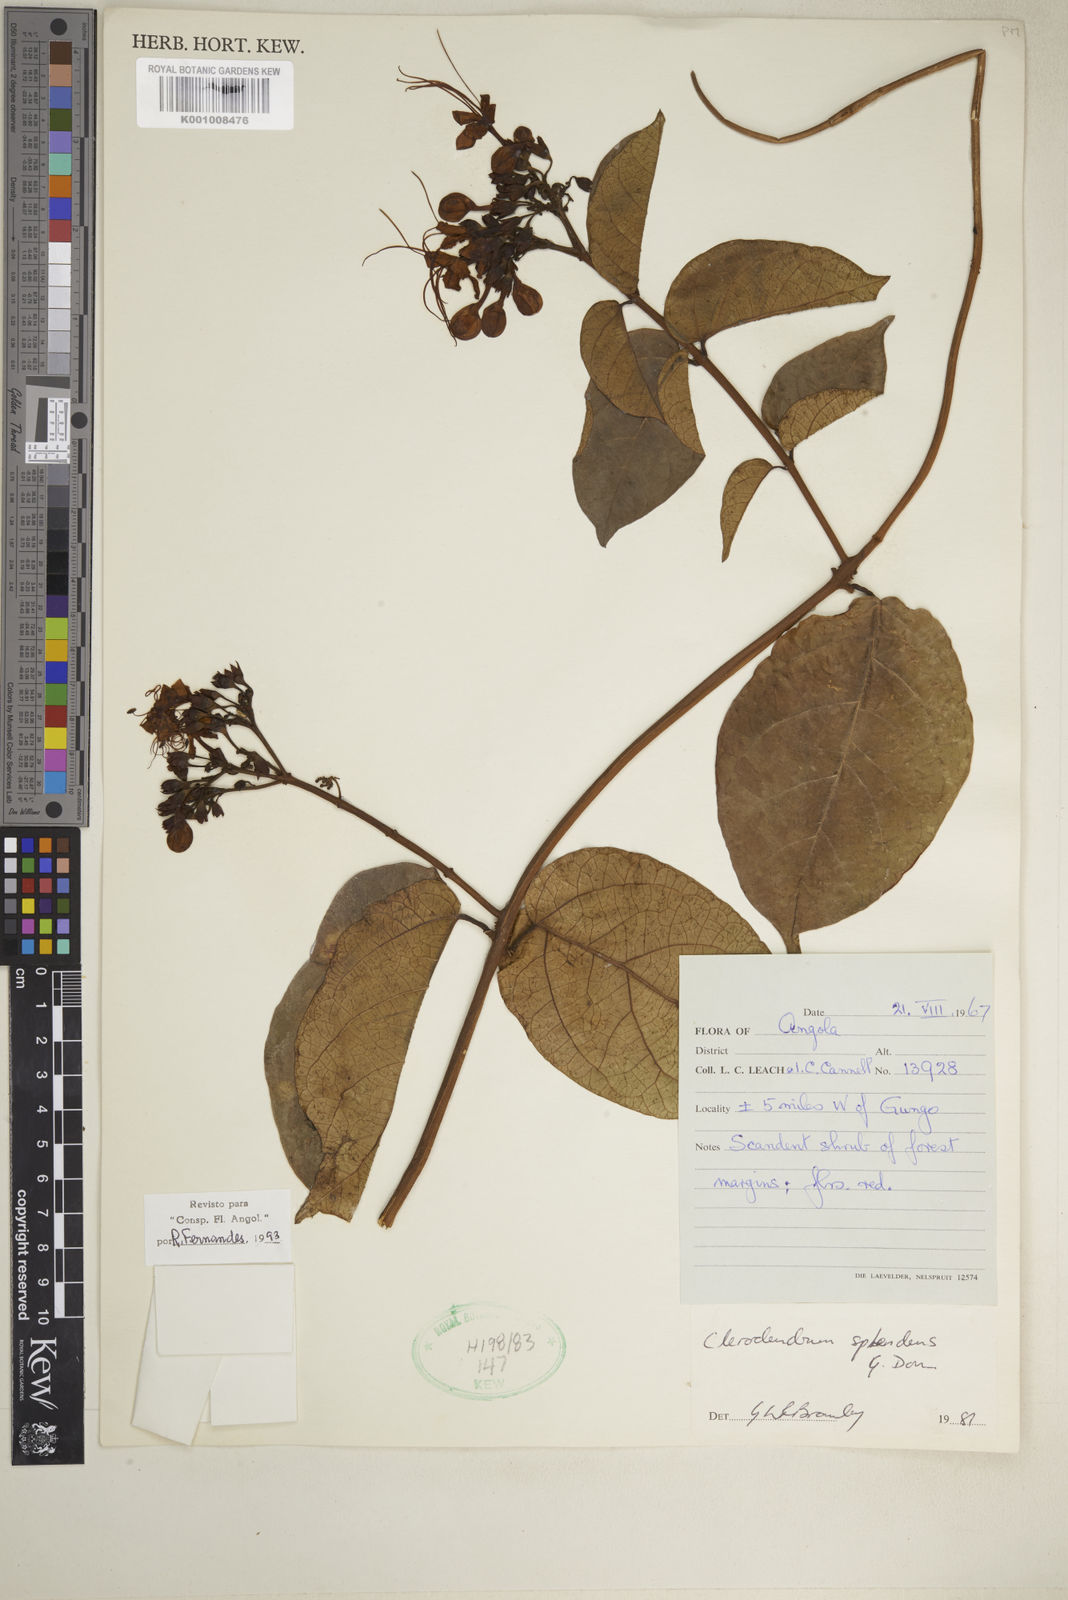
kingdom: Plantae
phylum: Tracheophyta
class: Magnoliopsida
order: Lamiales
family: Lamiaceae
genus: Clerodendrum
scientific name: Clerodendrum splendens
